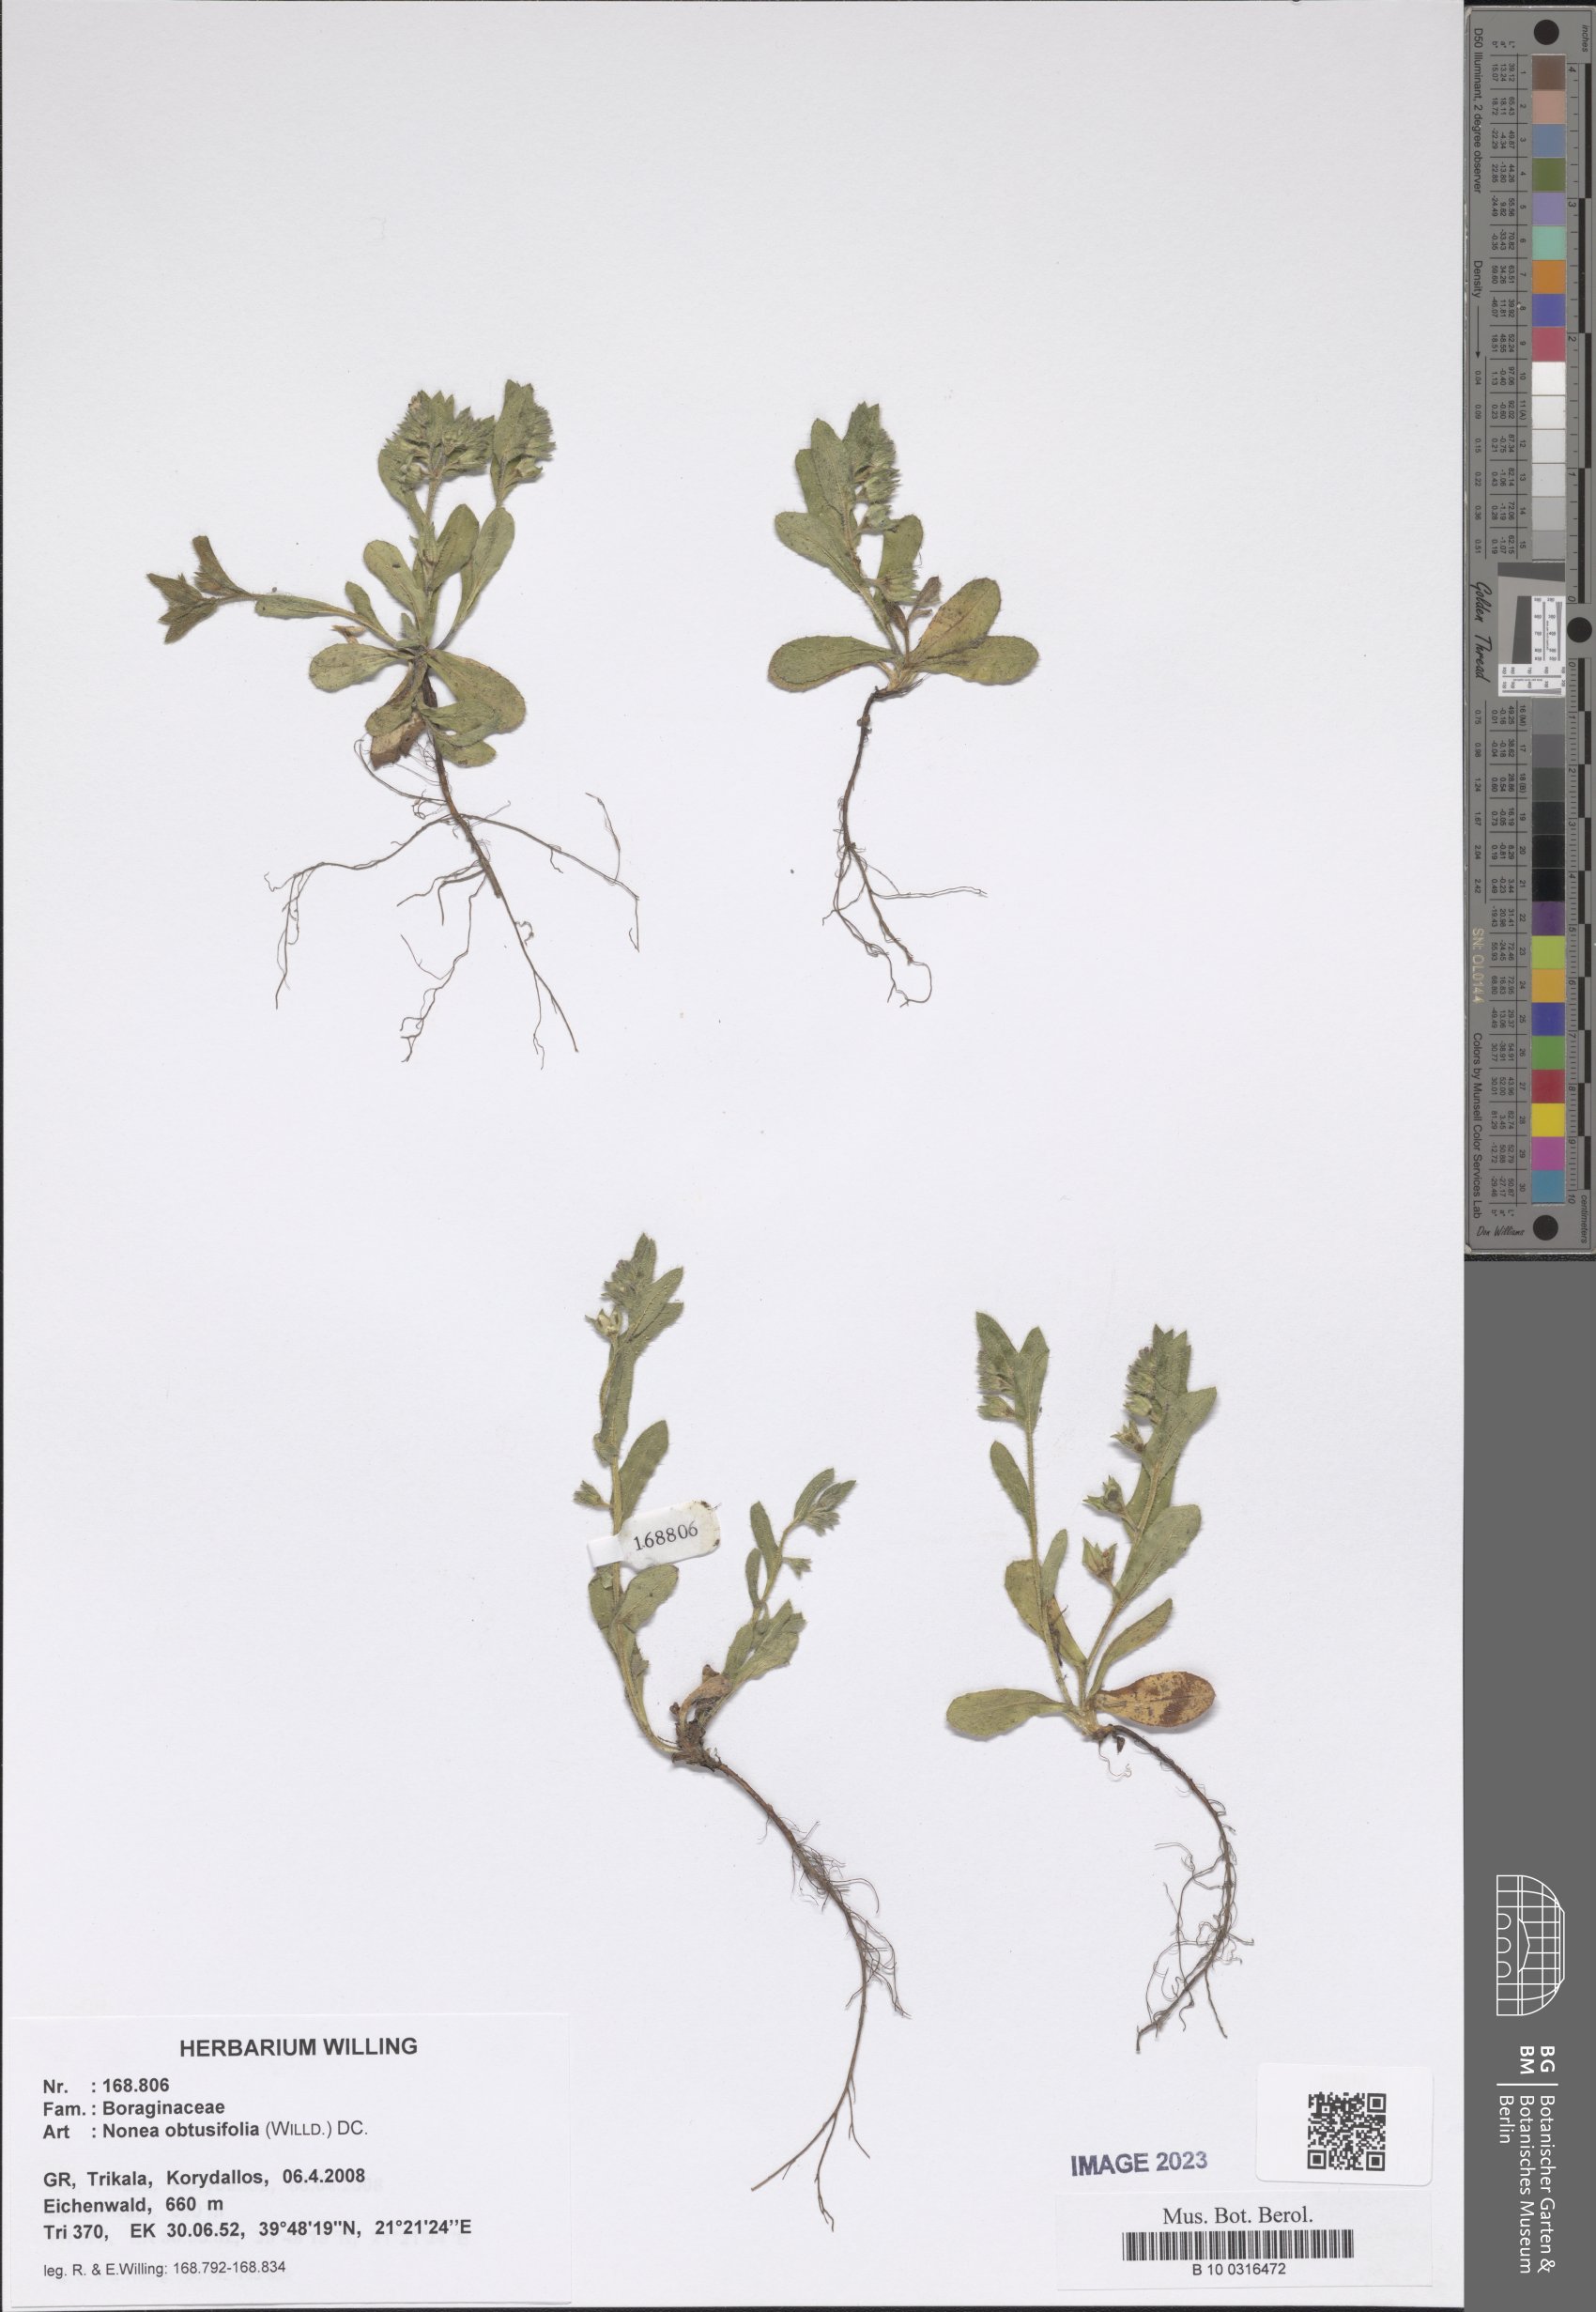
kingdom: Plantae
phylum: Tracheophyta
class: Magnoliopsida
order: Boraginales
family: Boraginaceae
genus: Melanortocarya
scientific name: Melanortocarya obtusifolia
